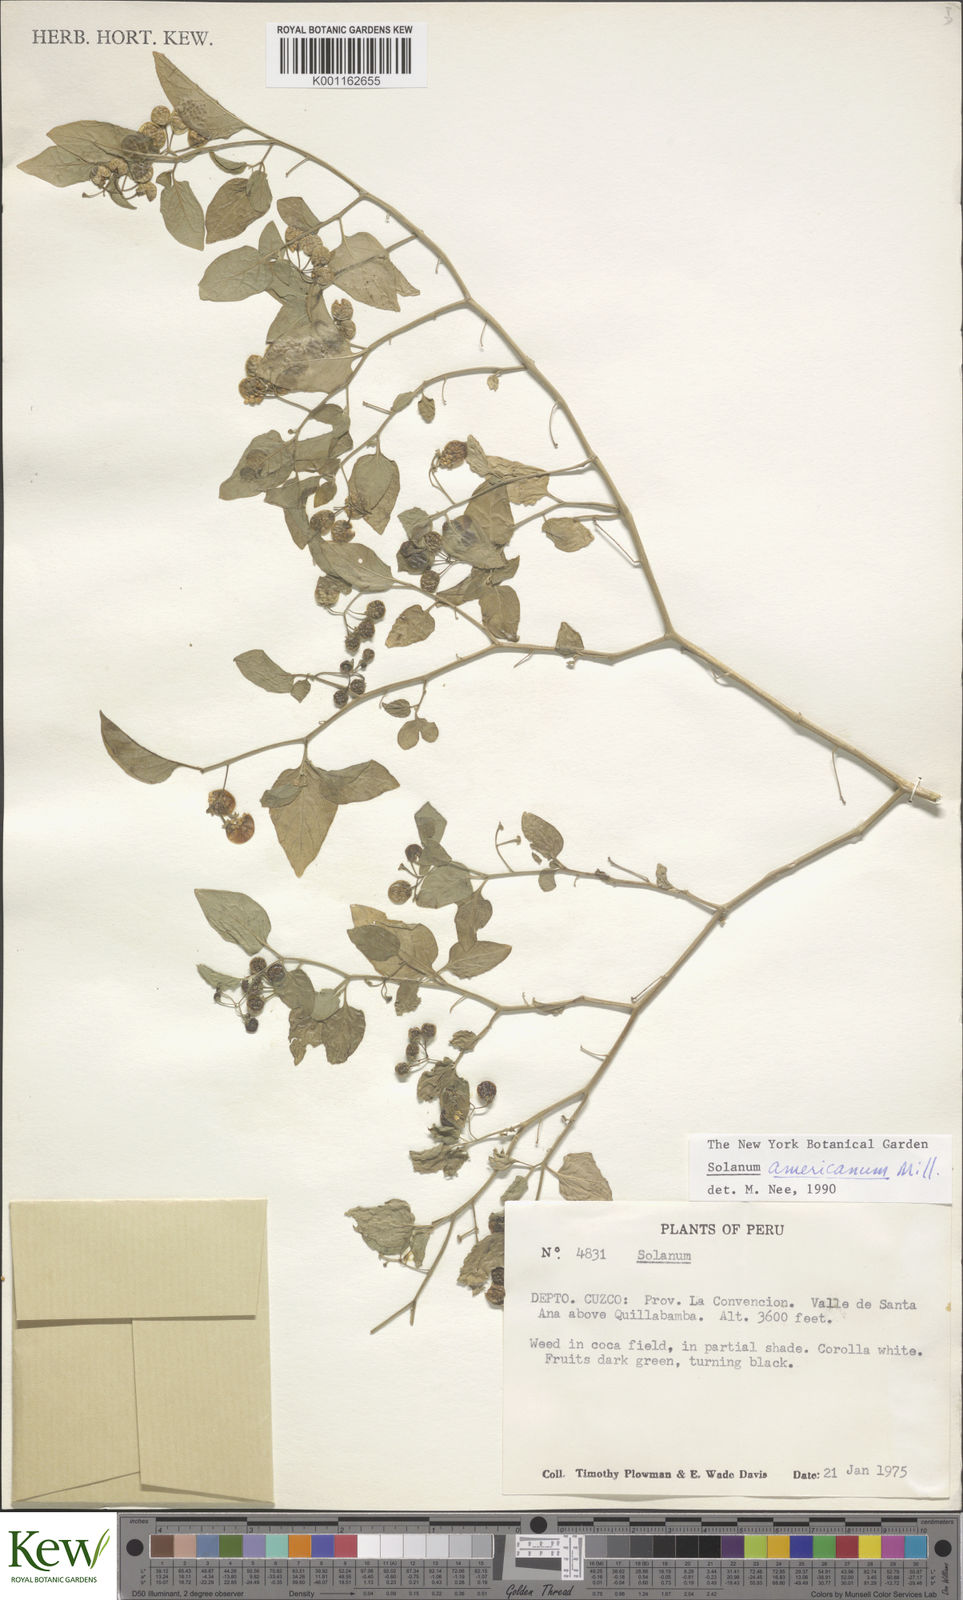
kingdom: Plantae
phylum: Tracheophyta
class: Magnoliopsida
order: Solanales
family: Solanaceae
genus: Solanum
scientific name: Solanum americanum
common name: American black nightshade
